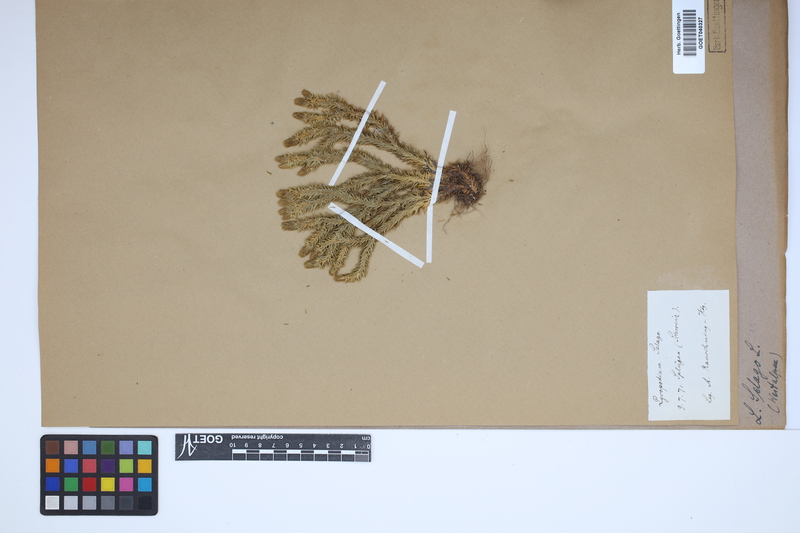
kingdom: Plantae
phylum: Tracheophyta
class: Lycopodiopsida
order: Lycopodiales
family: Lycopodiaceae
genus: Huperzia
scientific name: Huperzia selago
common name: Northern firmoss
